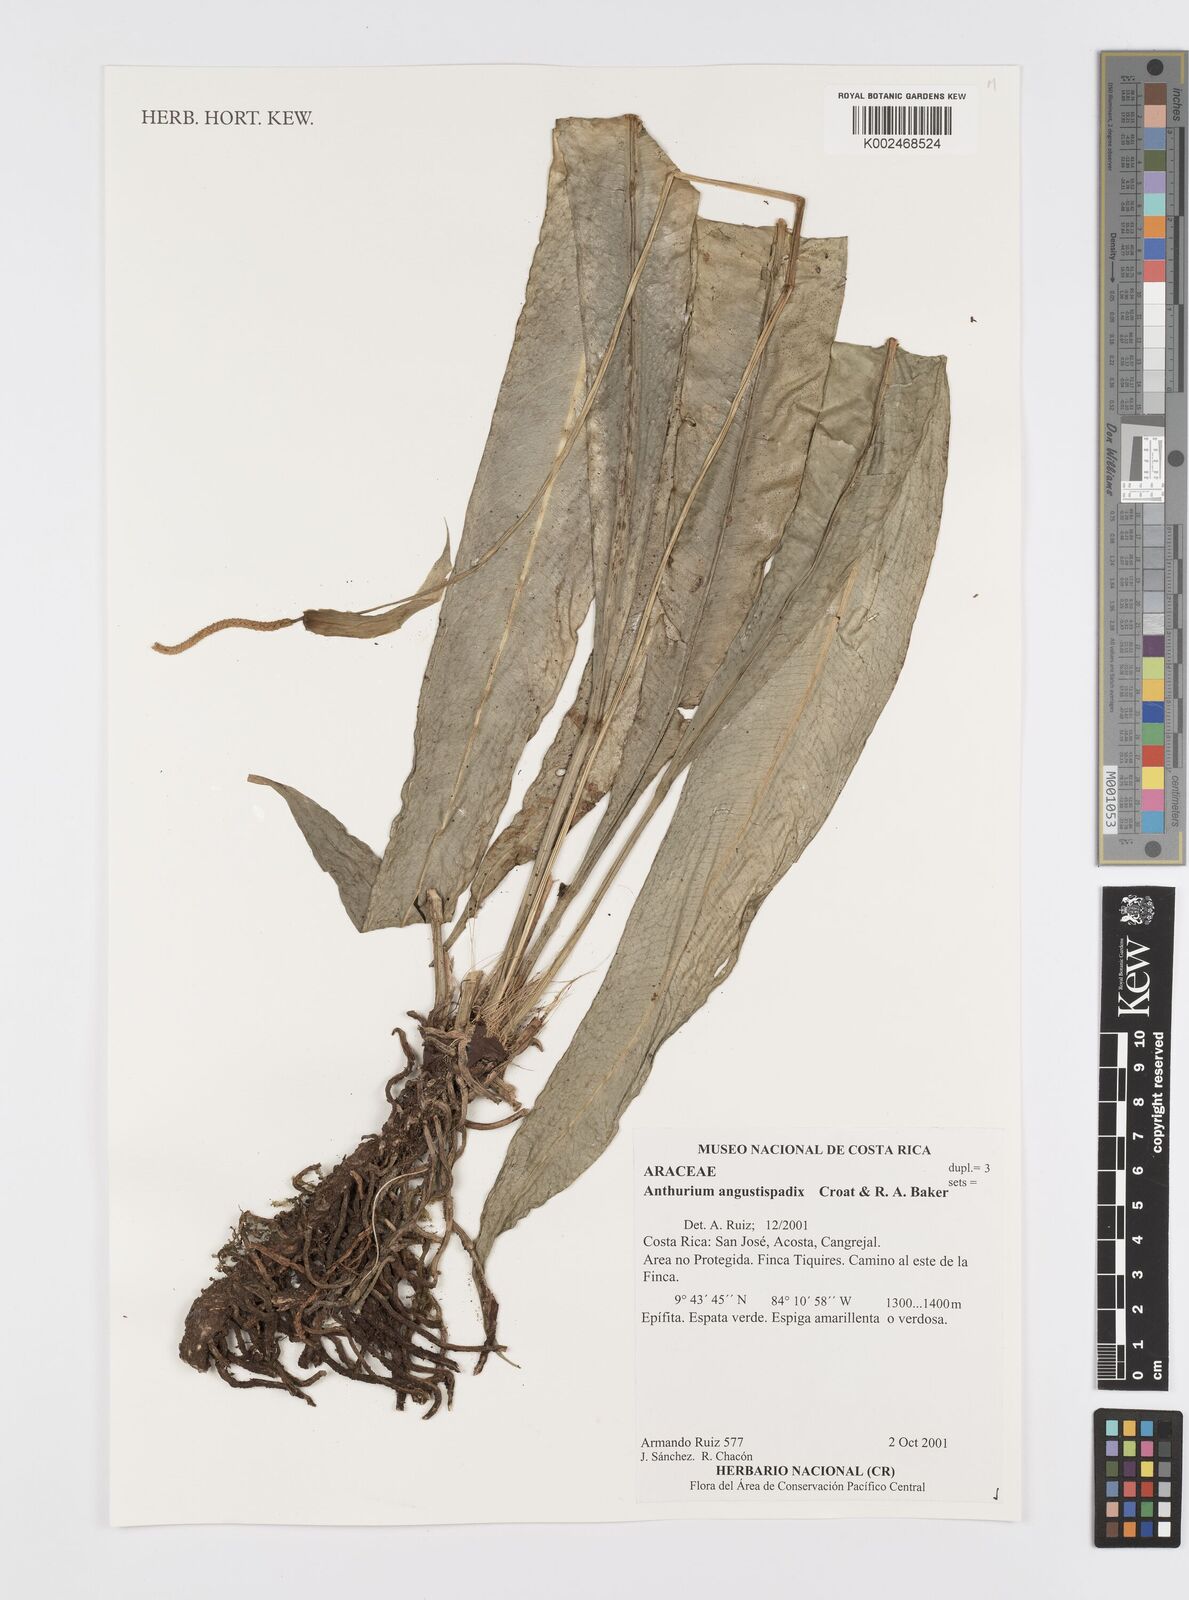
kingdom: Plantae
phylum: Tracheophyta
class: Liliopsida
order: Alismatales
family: Araceae
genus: Anthurium
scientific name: Anthurium angustispadix
